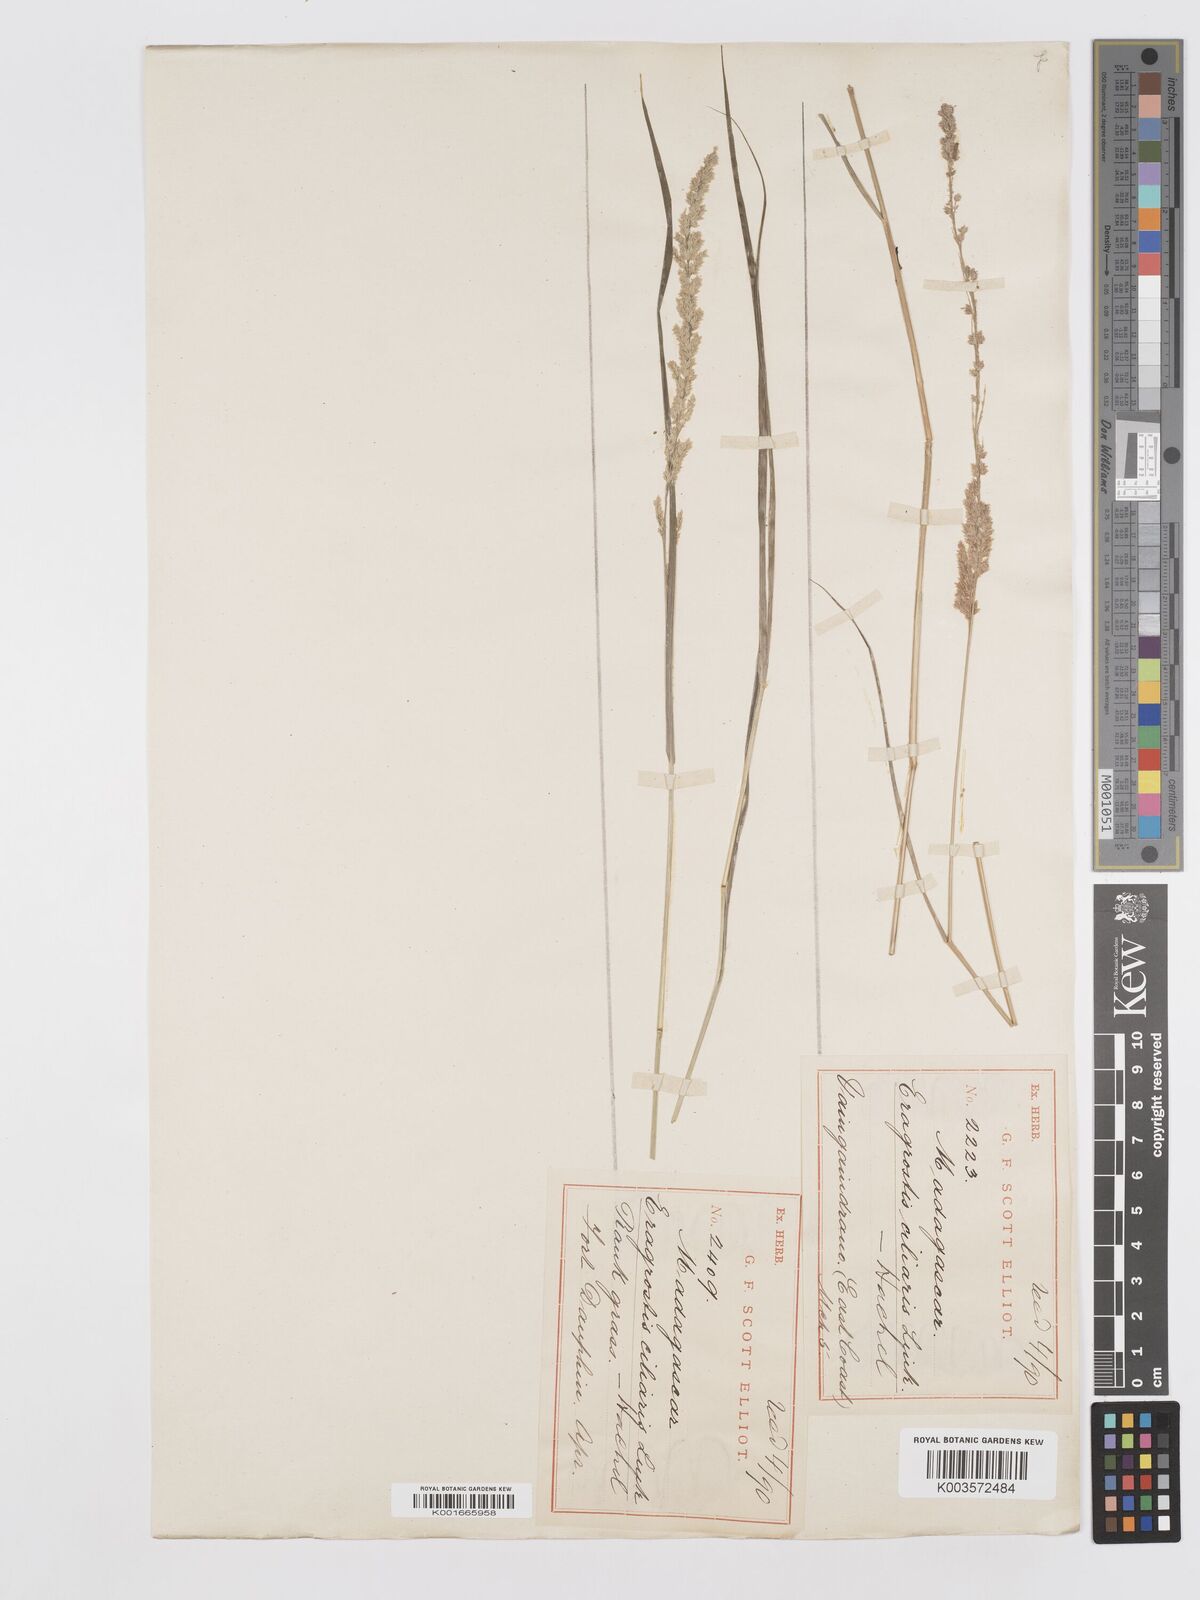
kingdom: Plantae
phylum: Tracheophyta
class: Liliopsida
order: Poales
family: Poaceae
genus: Eragrostis
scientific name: Eragrostis ciliaris
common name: Gophertail lovegrass
